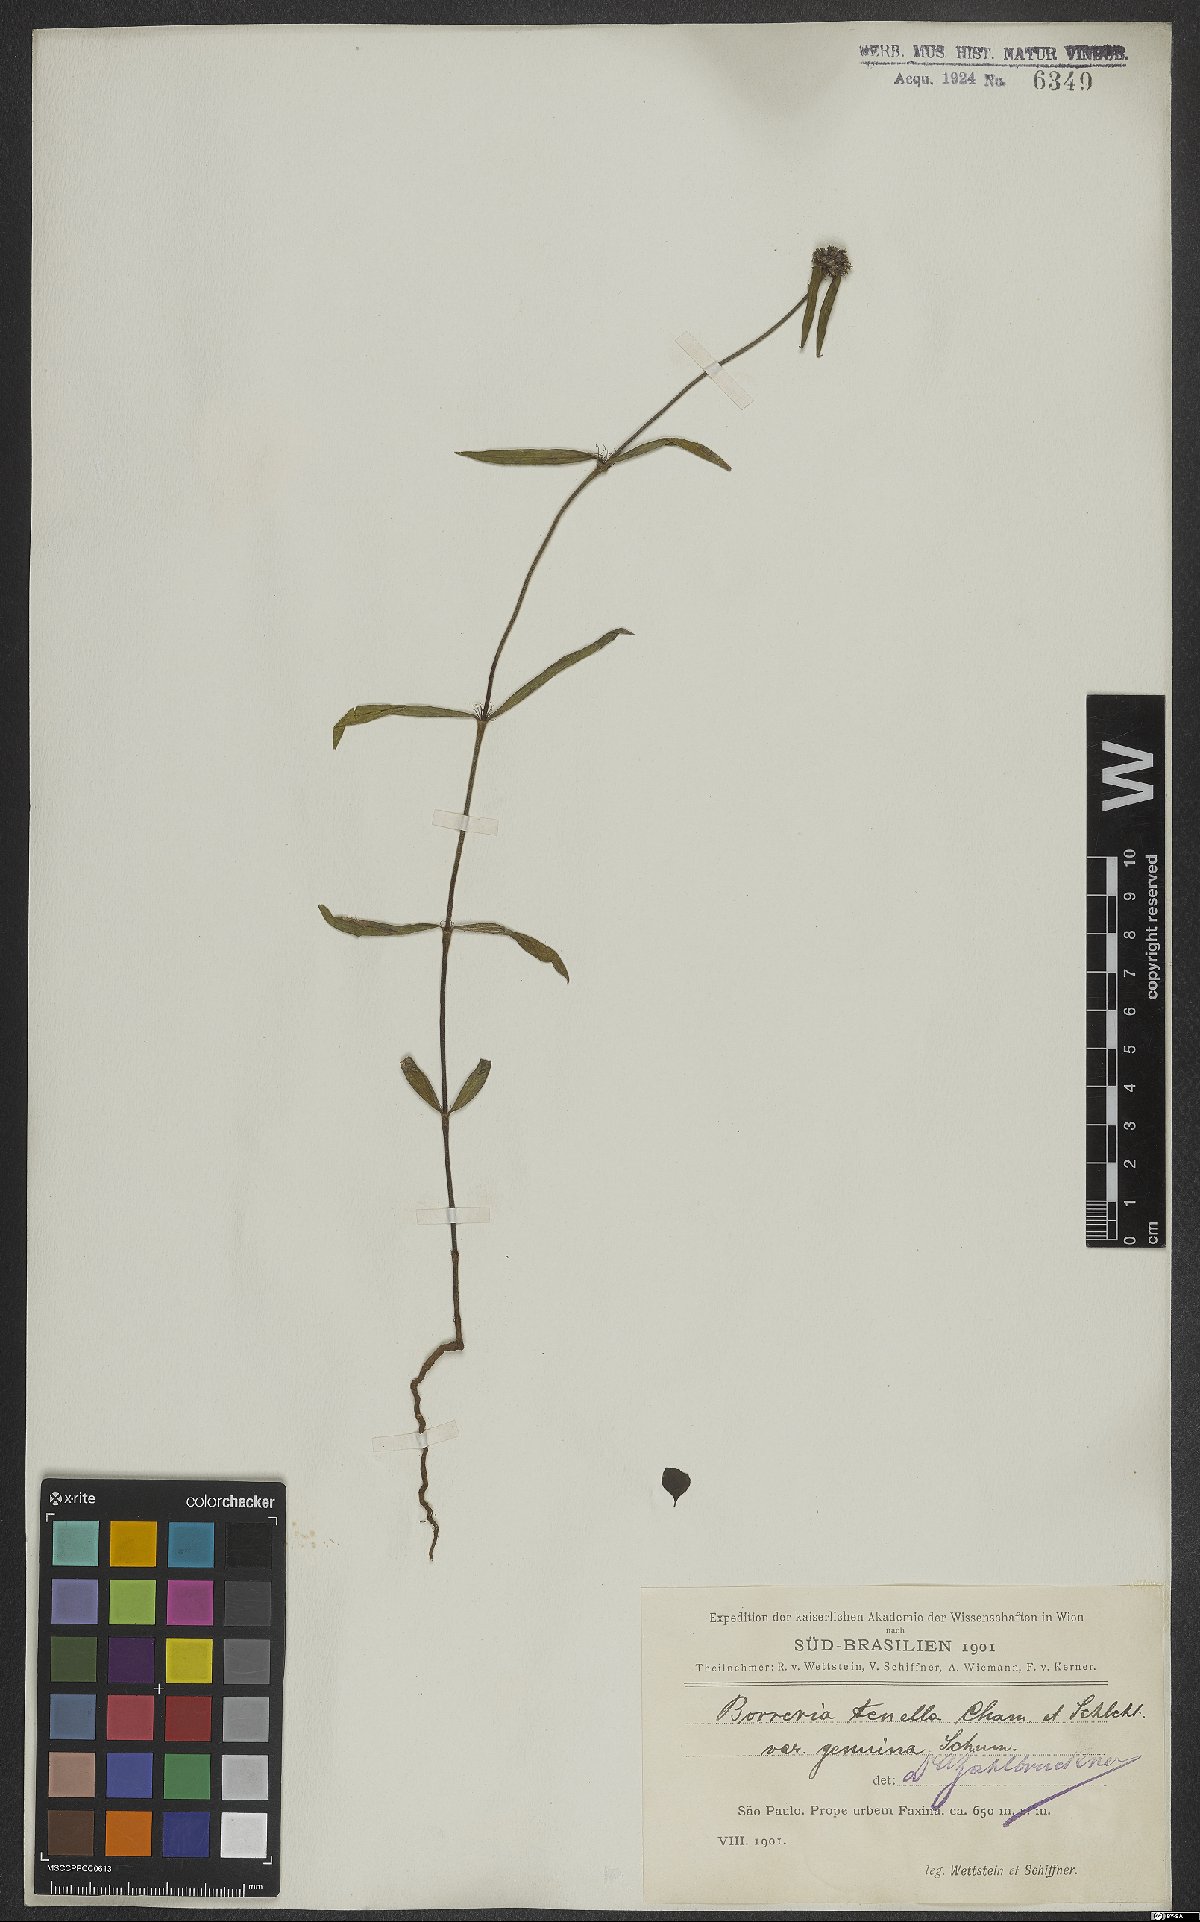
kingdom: Plantae
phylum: Tracheophyta
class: Magnoliopsida
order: Gentianales
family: Rubiaceae
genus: Spermacoce
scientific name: Spermacoce orinocensis
